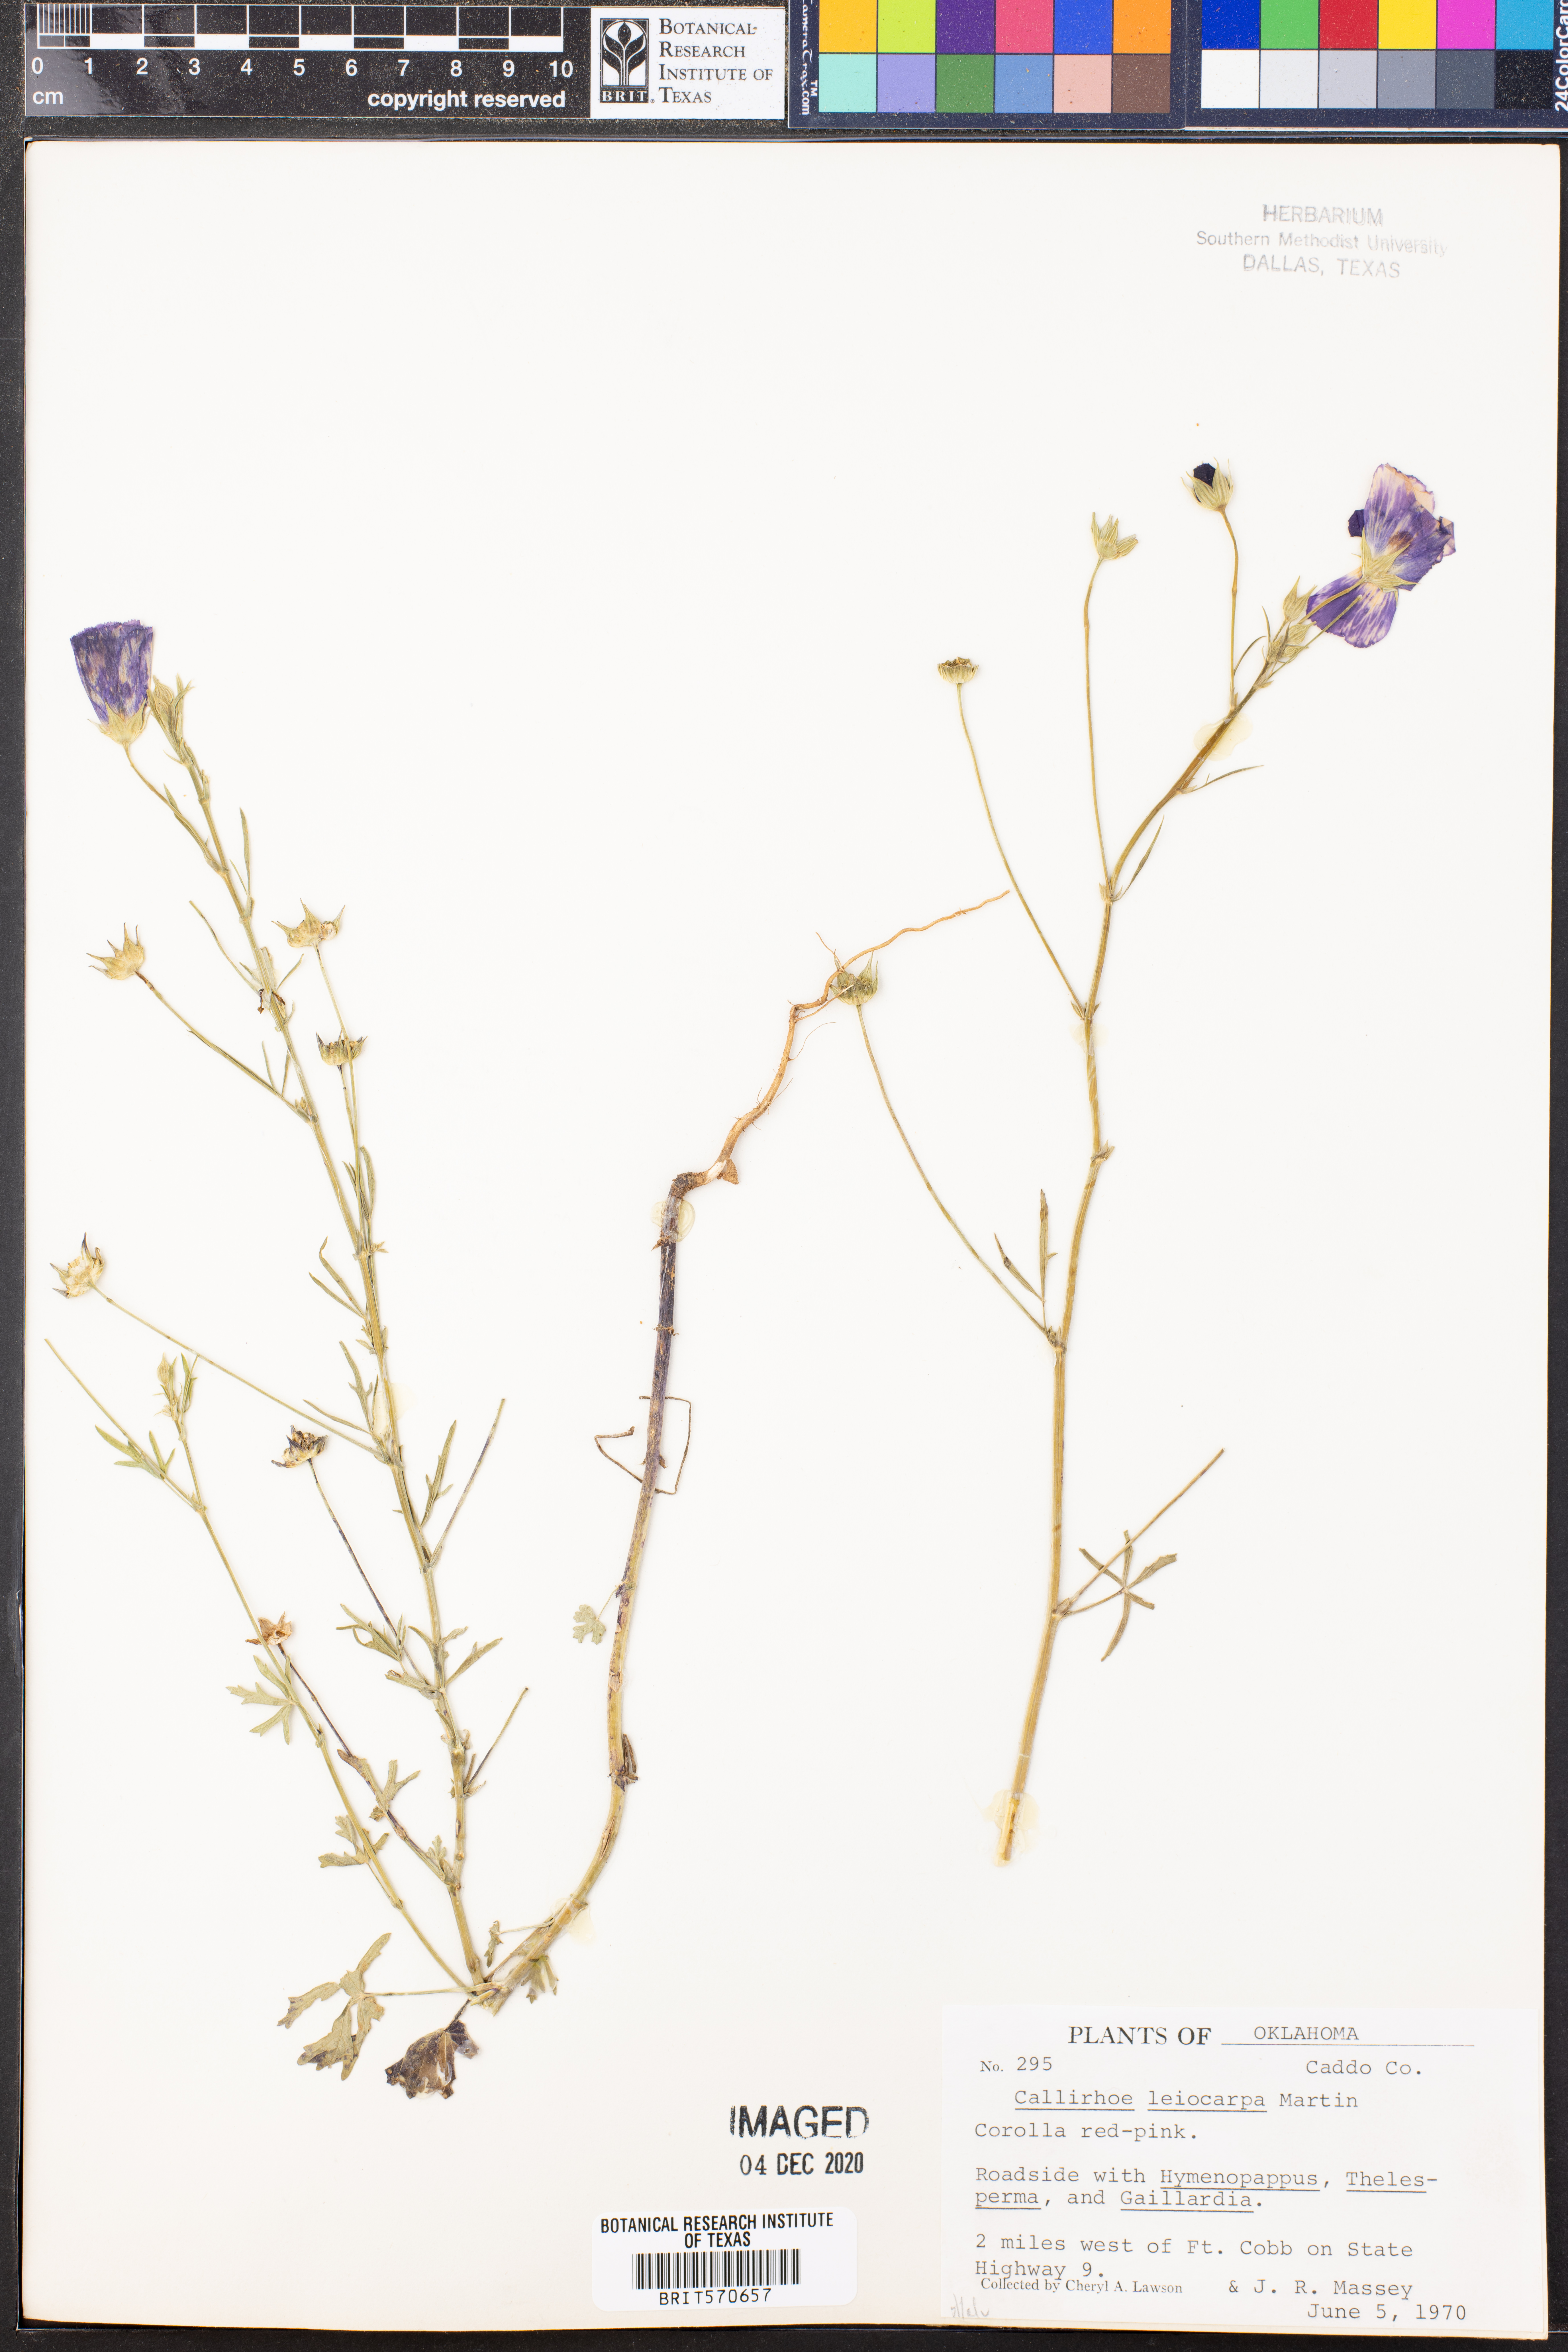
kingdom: Plantae
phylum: Tracheophyta
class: Magnoliopsida
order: Malvales
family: Malvaceae
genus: Callirhoe
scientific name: Callirhoe leiocarpa
